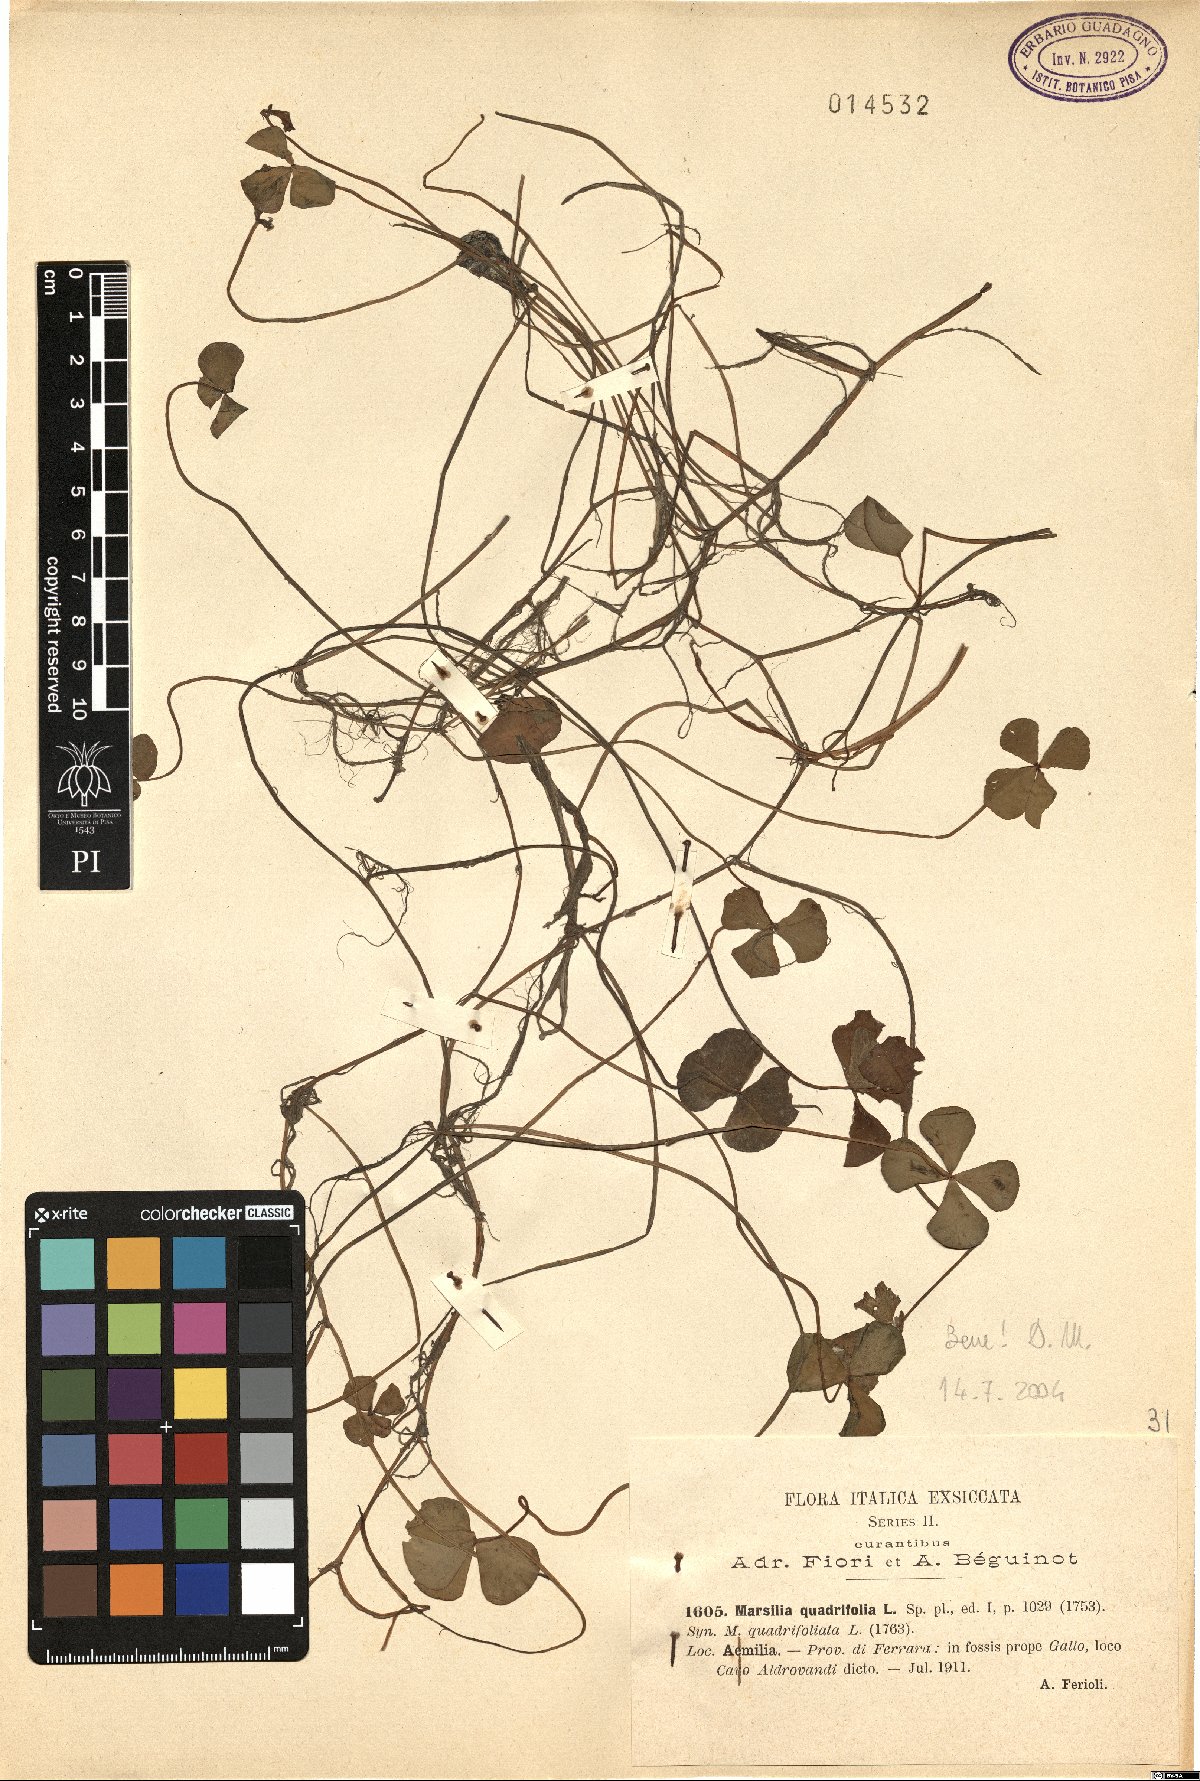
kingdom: Plantae
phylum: Tracheophyta
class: Polypodiopsida
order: Salviniales
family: Marsileaceae
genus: Marsilea
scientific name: Marsilea quadrifolia
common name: Water shamrock
